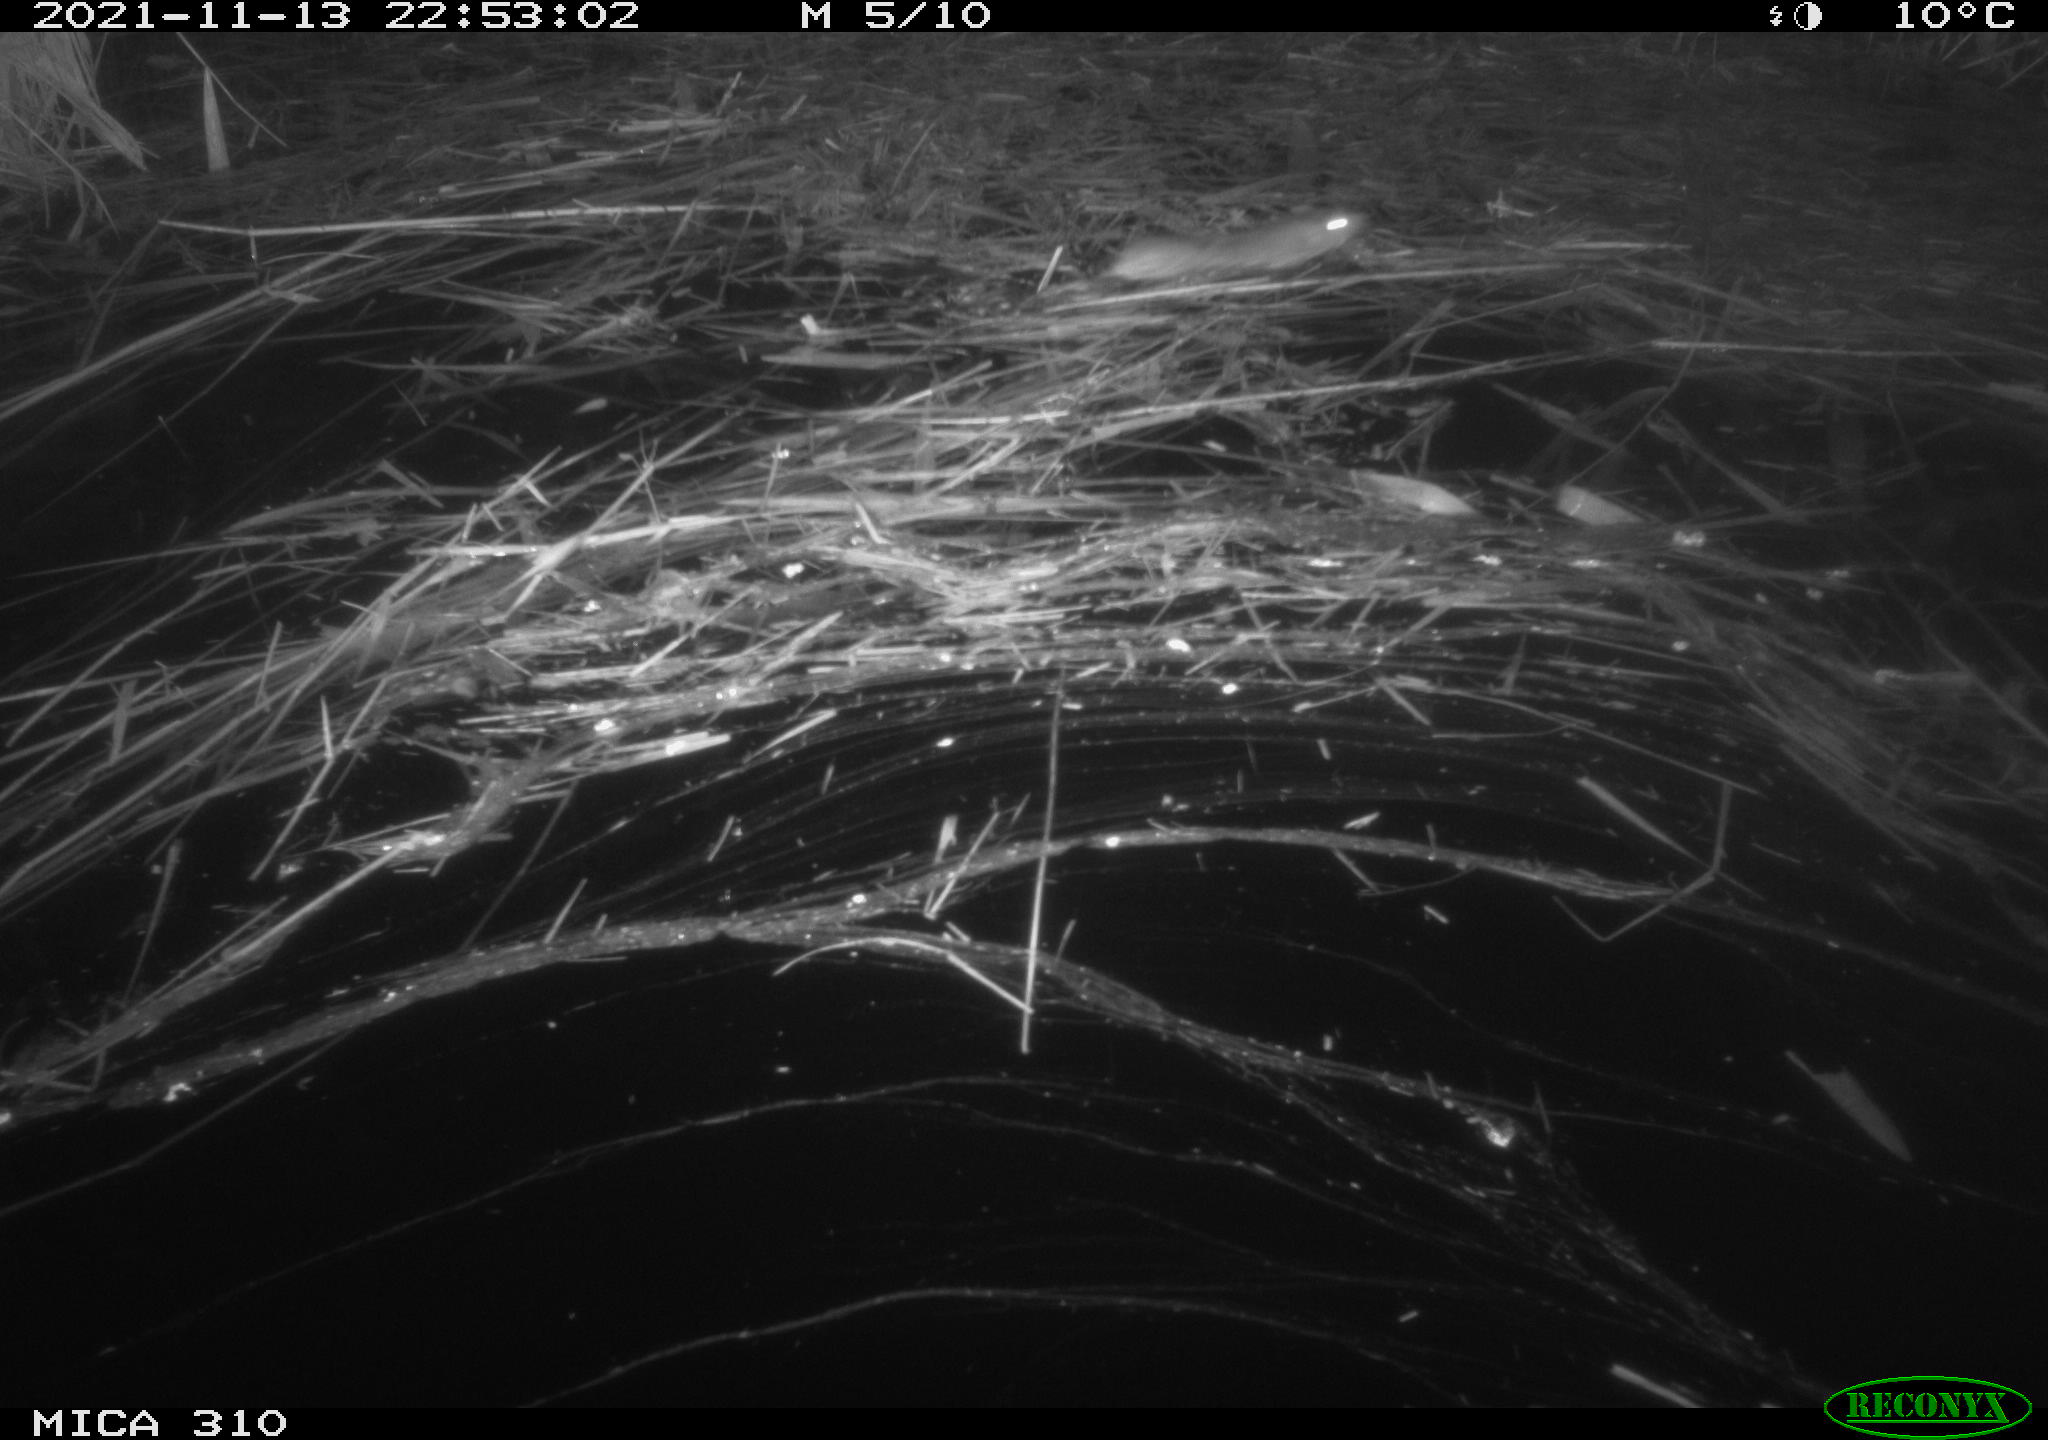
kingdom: Animalia
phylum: Chordata
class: Mammalia
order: Rodentia
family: Muridae
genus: Rattus
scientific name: Rattus norvegicus
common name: Brown rat
